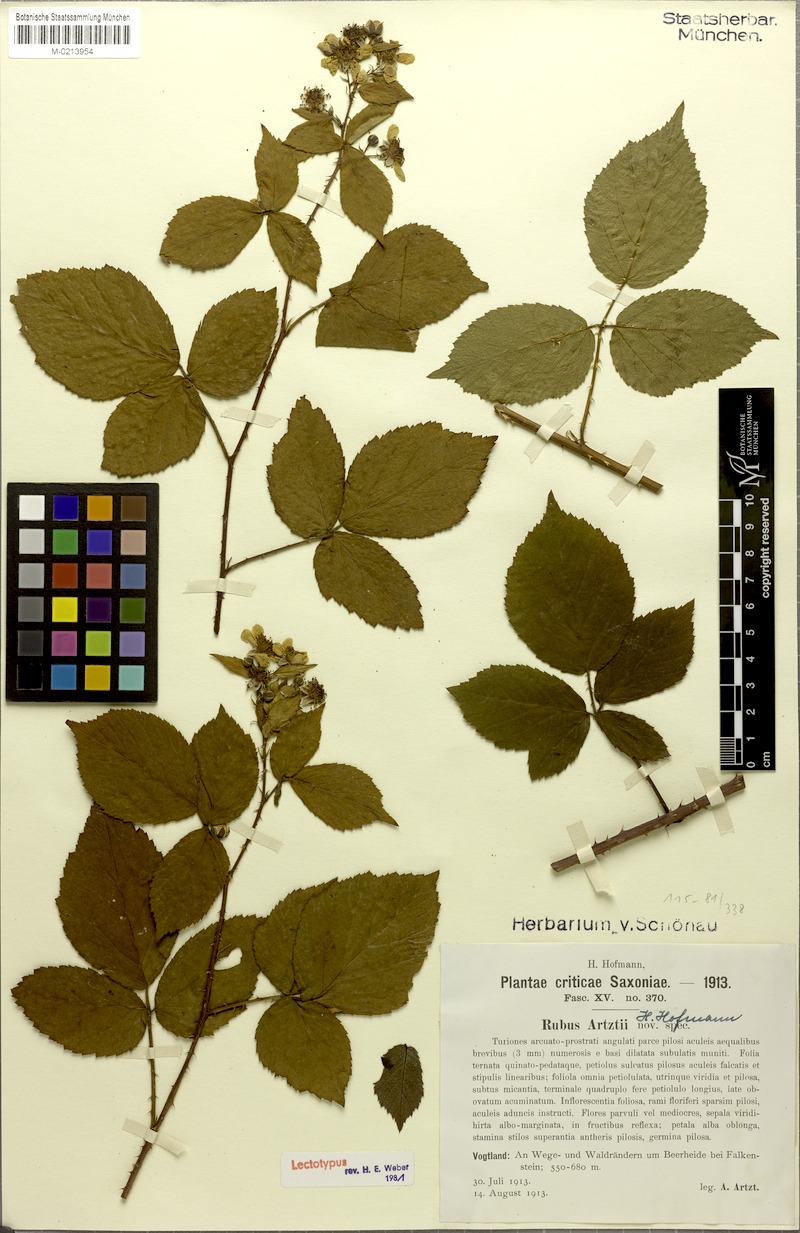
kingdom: Plantae
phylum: Tracheophyta
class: Magnoliopsida
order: Rosales
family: Rosaceae
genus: Rubus
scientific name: Rubus artztii
